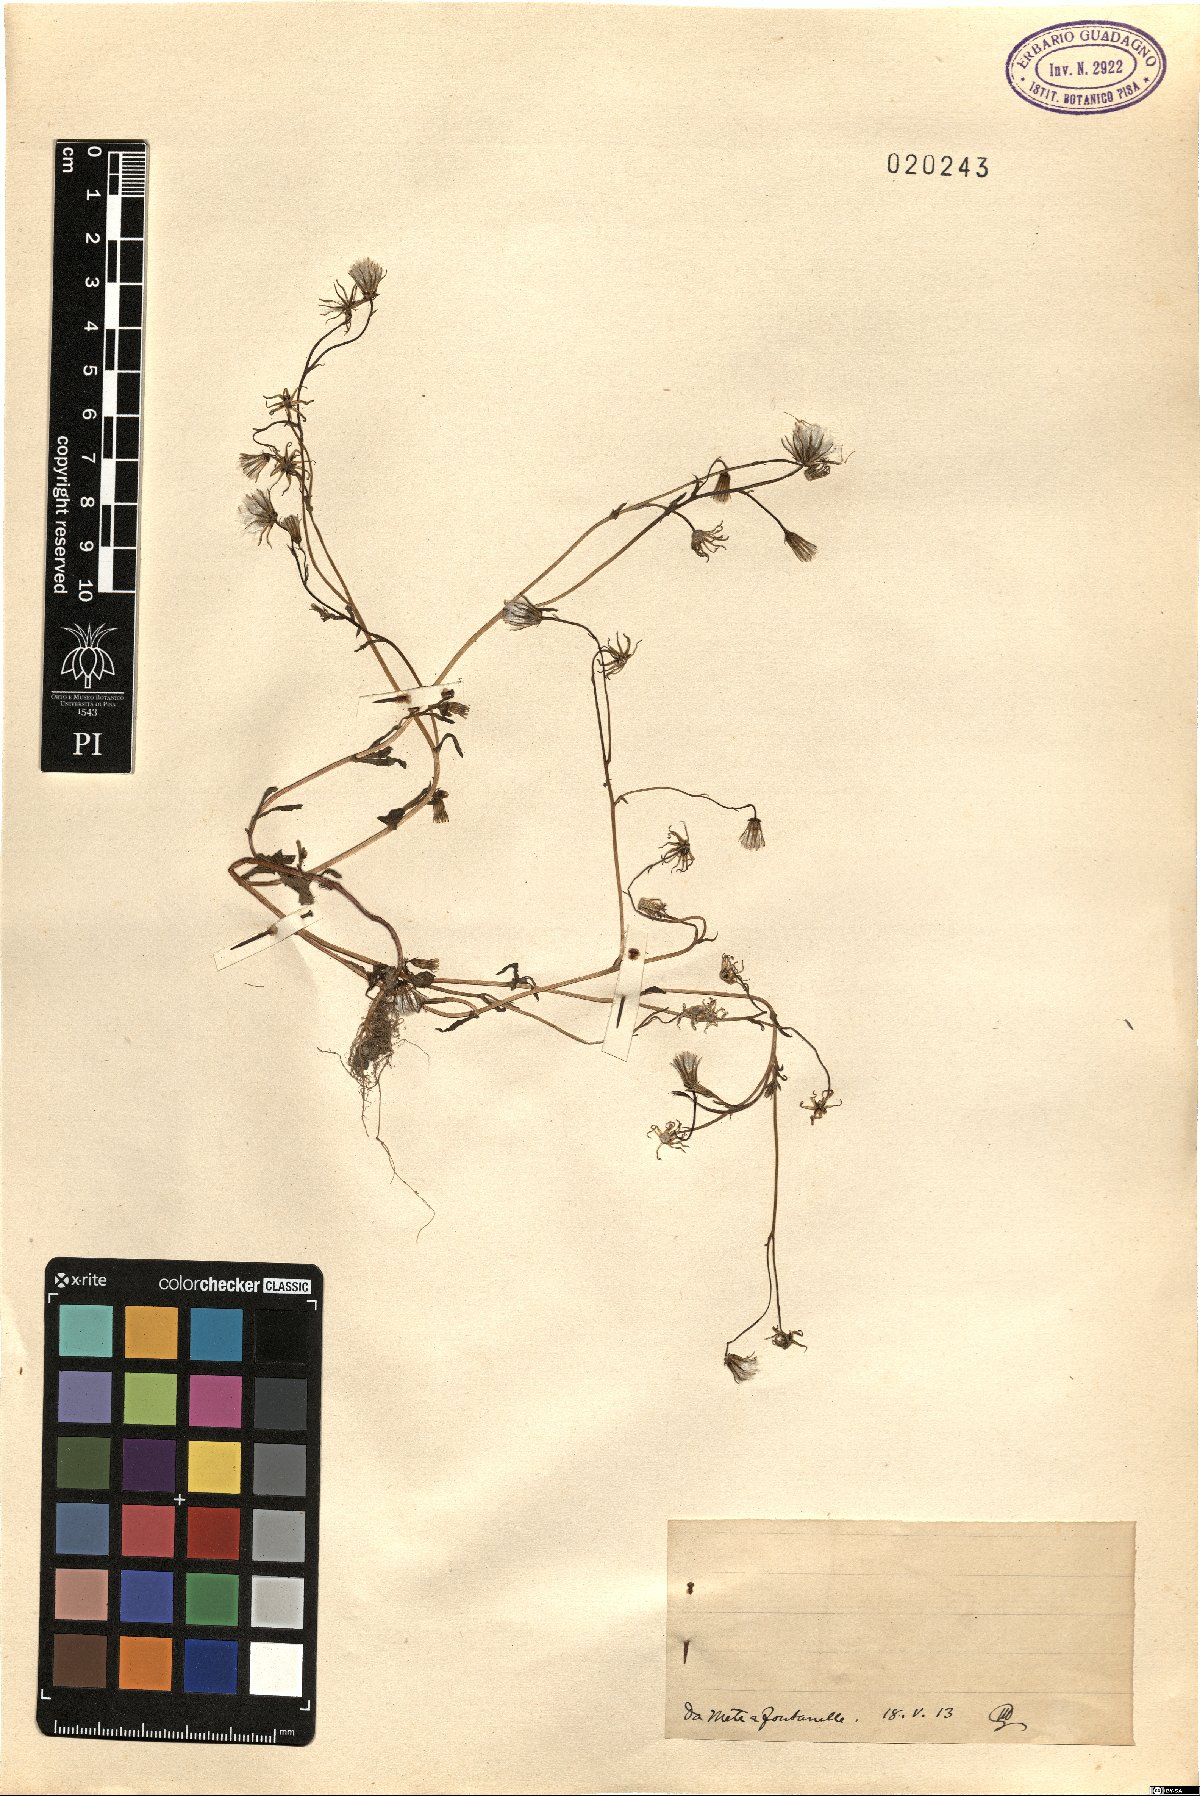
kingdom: Plantae
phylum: Tracheophyta
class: Magnoliopsida
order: Asterales
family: Asteraceae
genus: Senecio
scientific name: Senecio
